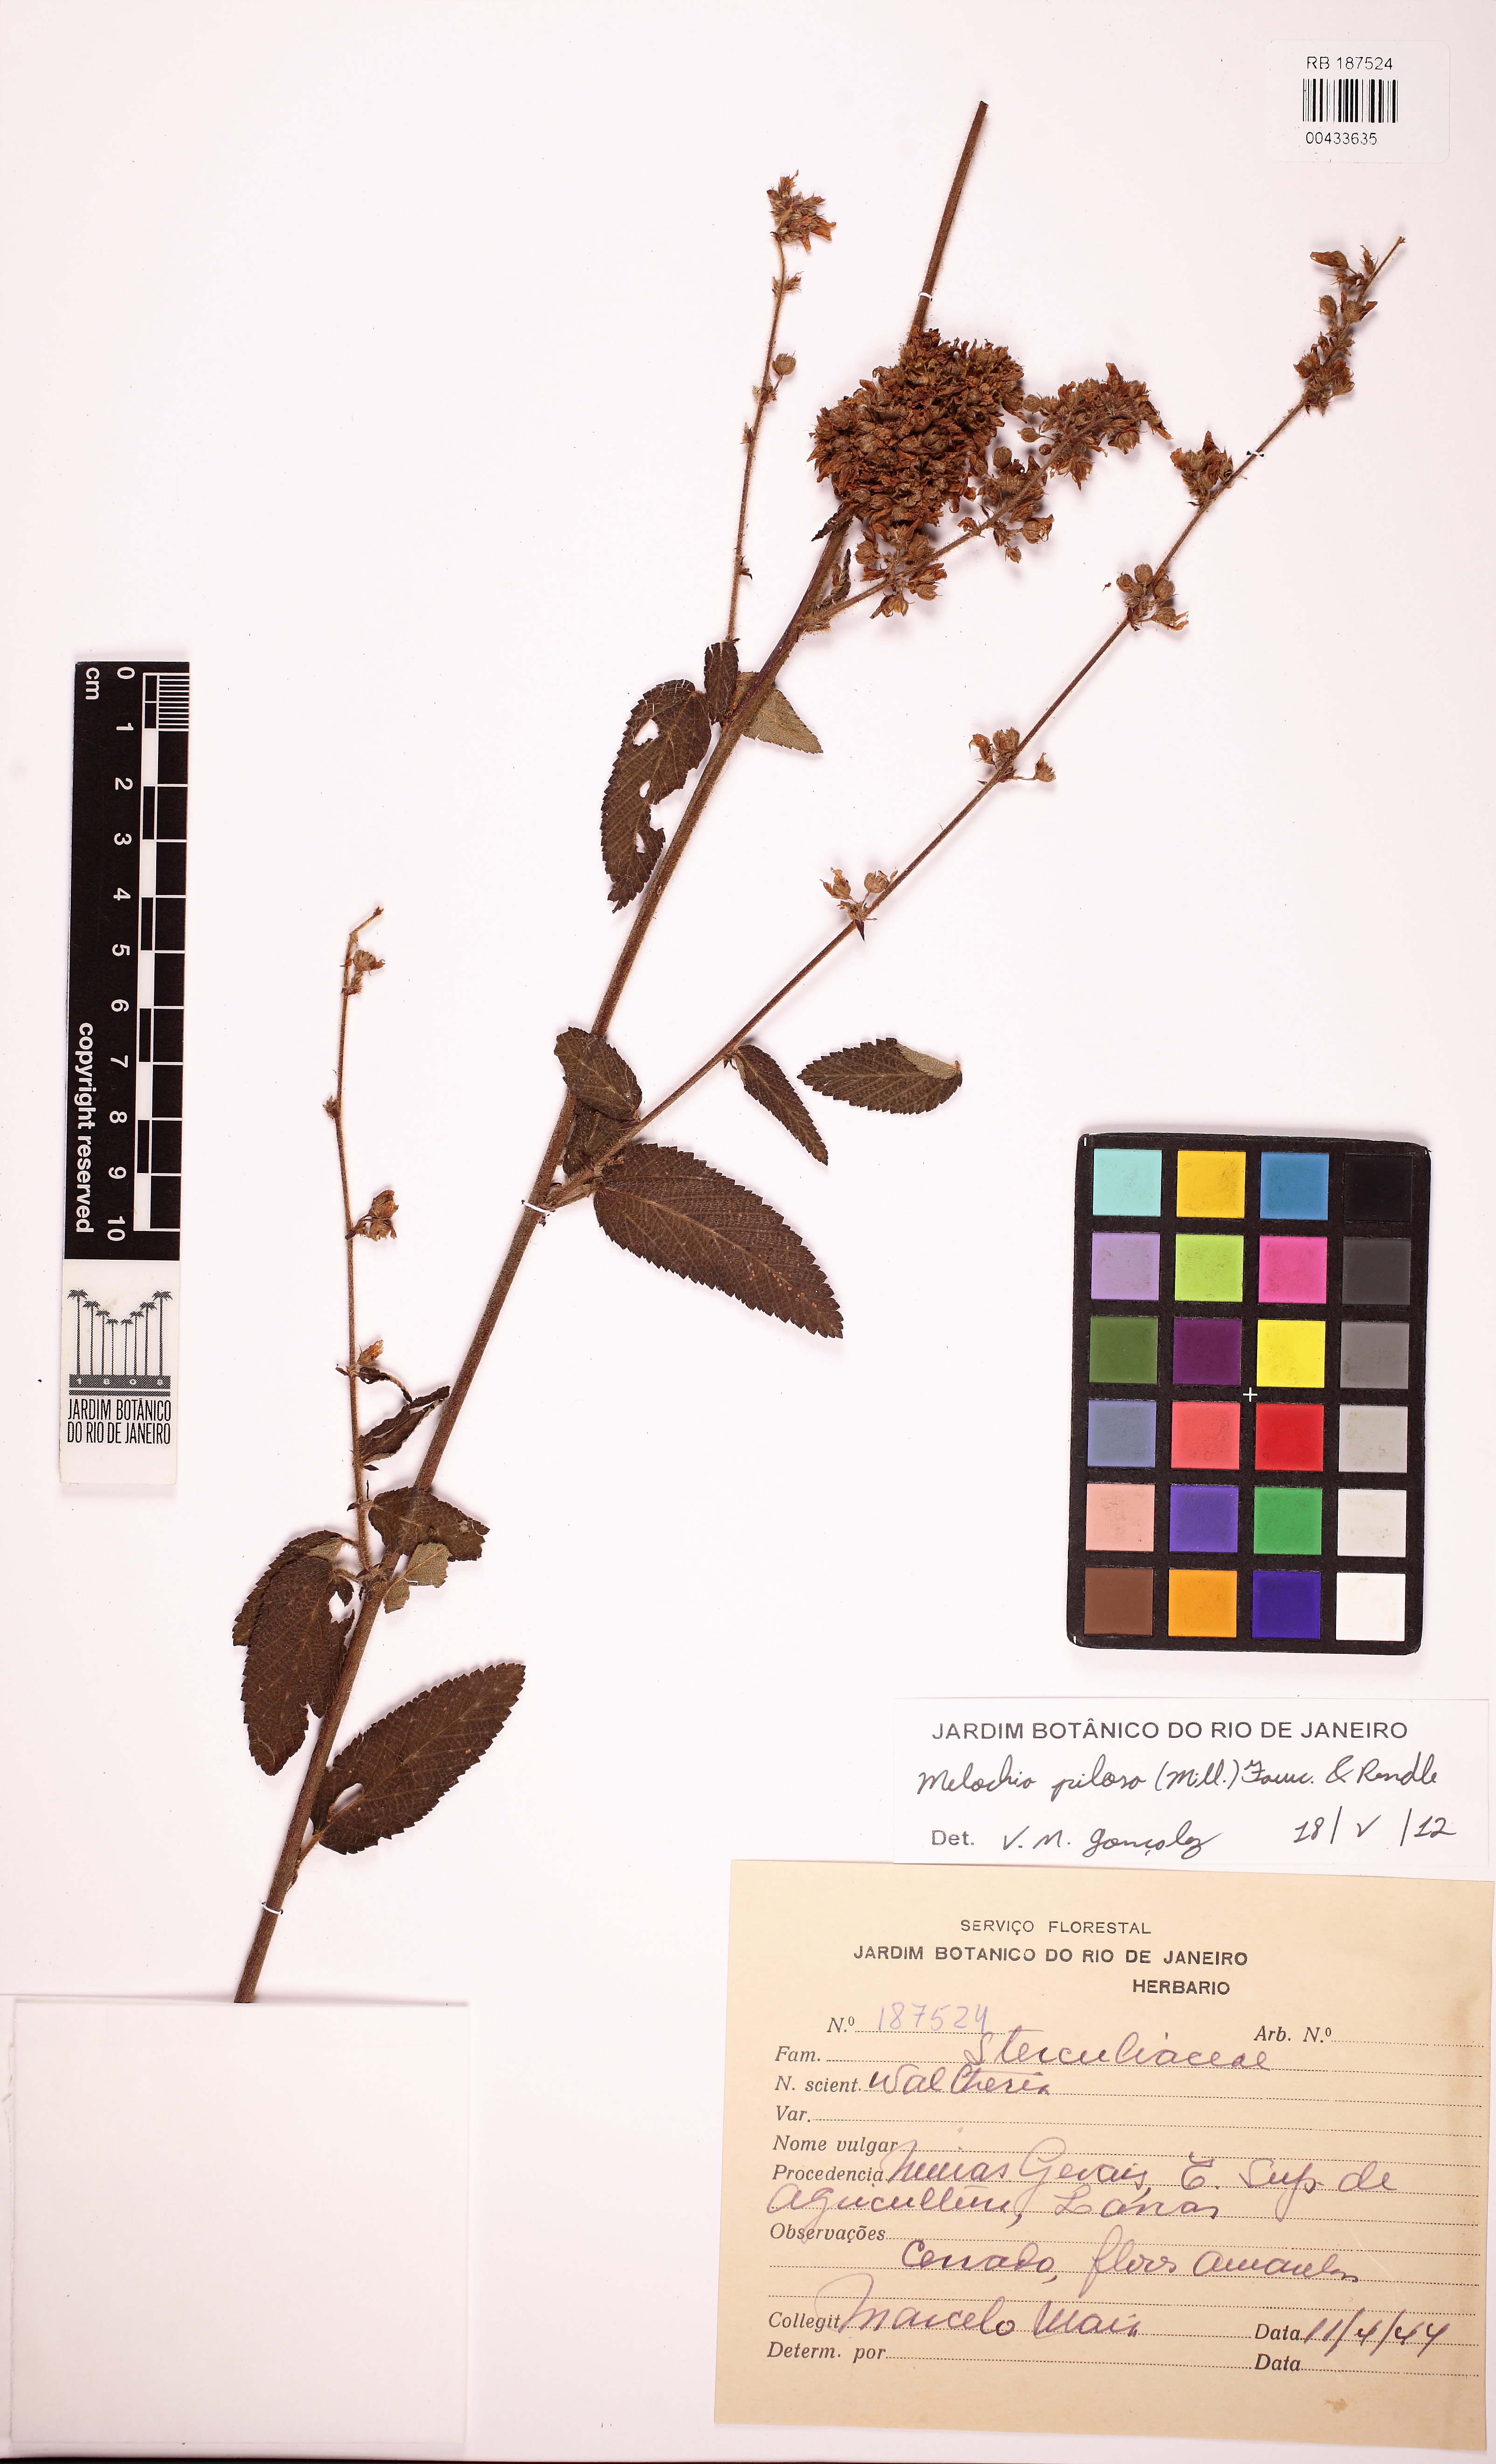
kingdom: Plantae
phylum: Tracheophyta
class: Magnoliopsida
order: Malvales
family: Malvaceae
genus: Melochia
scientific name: Melochia pilosa
